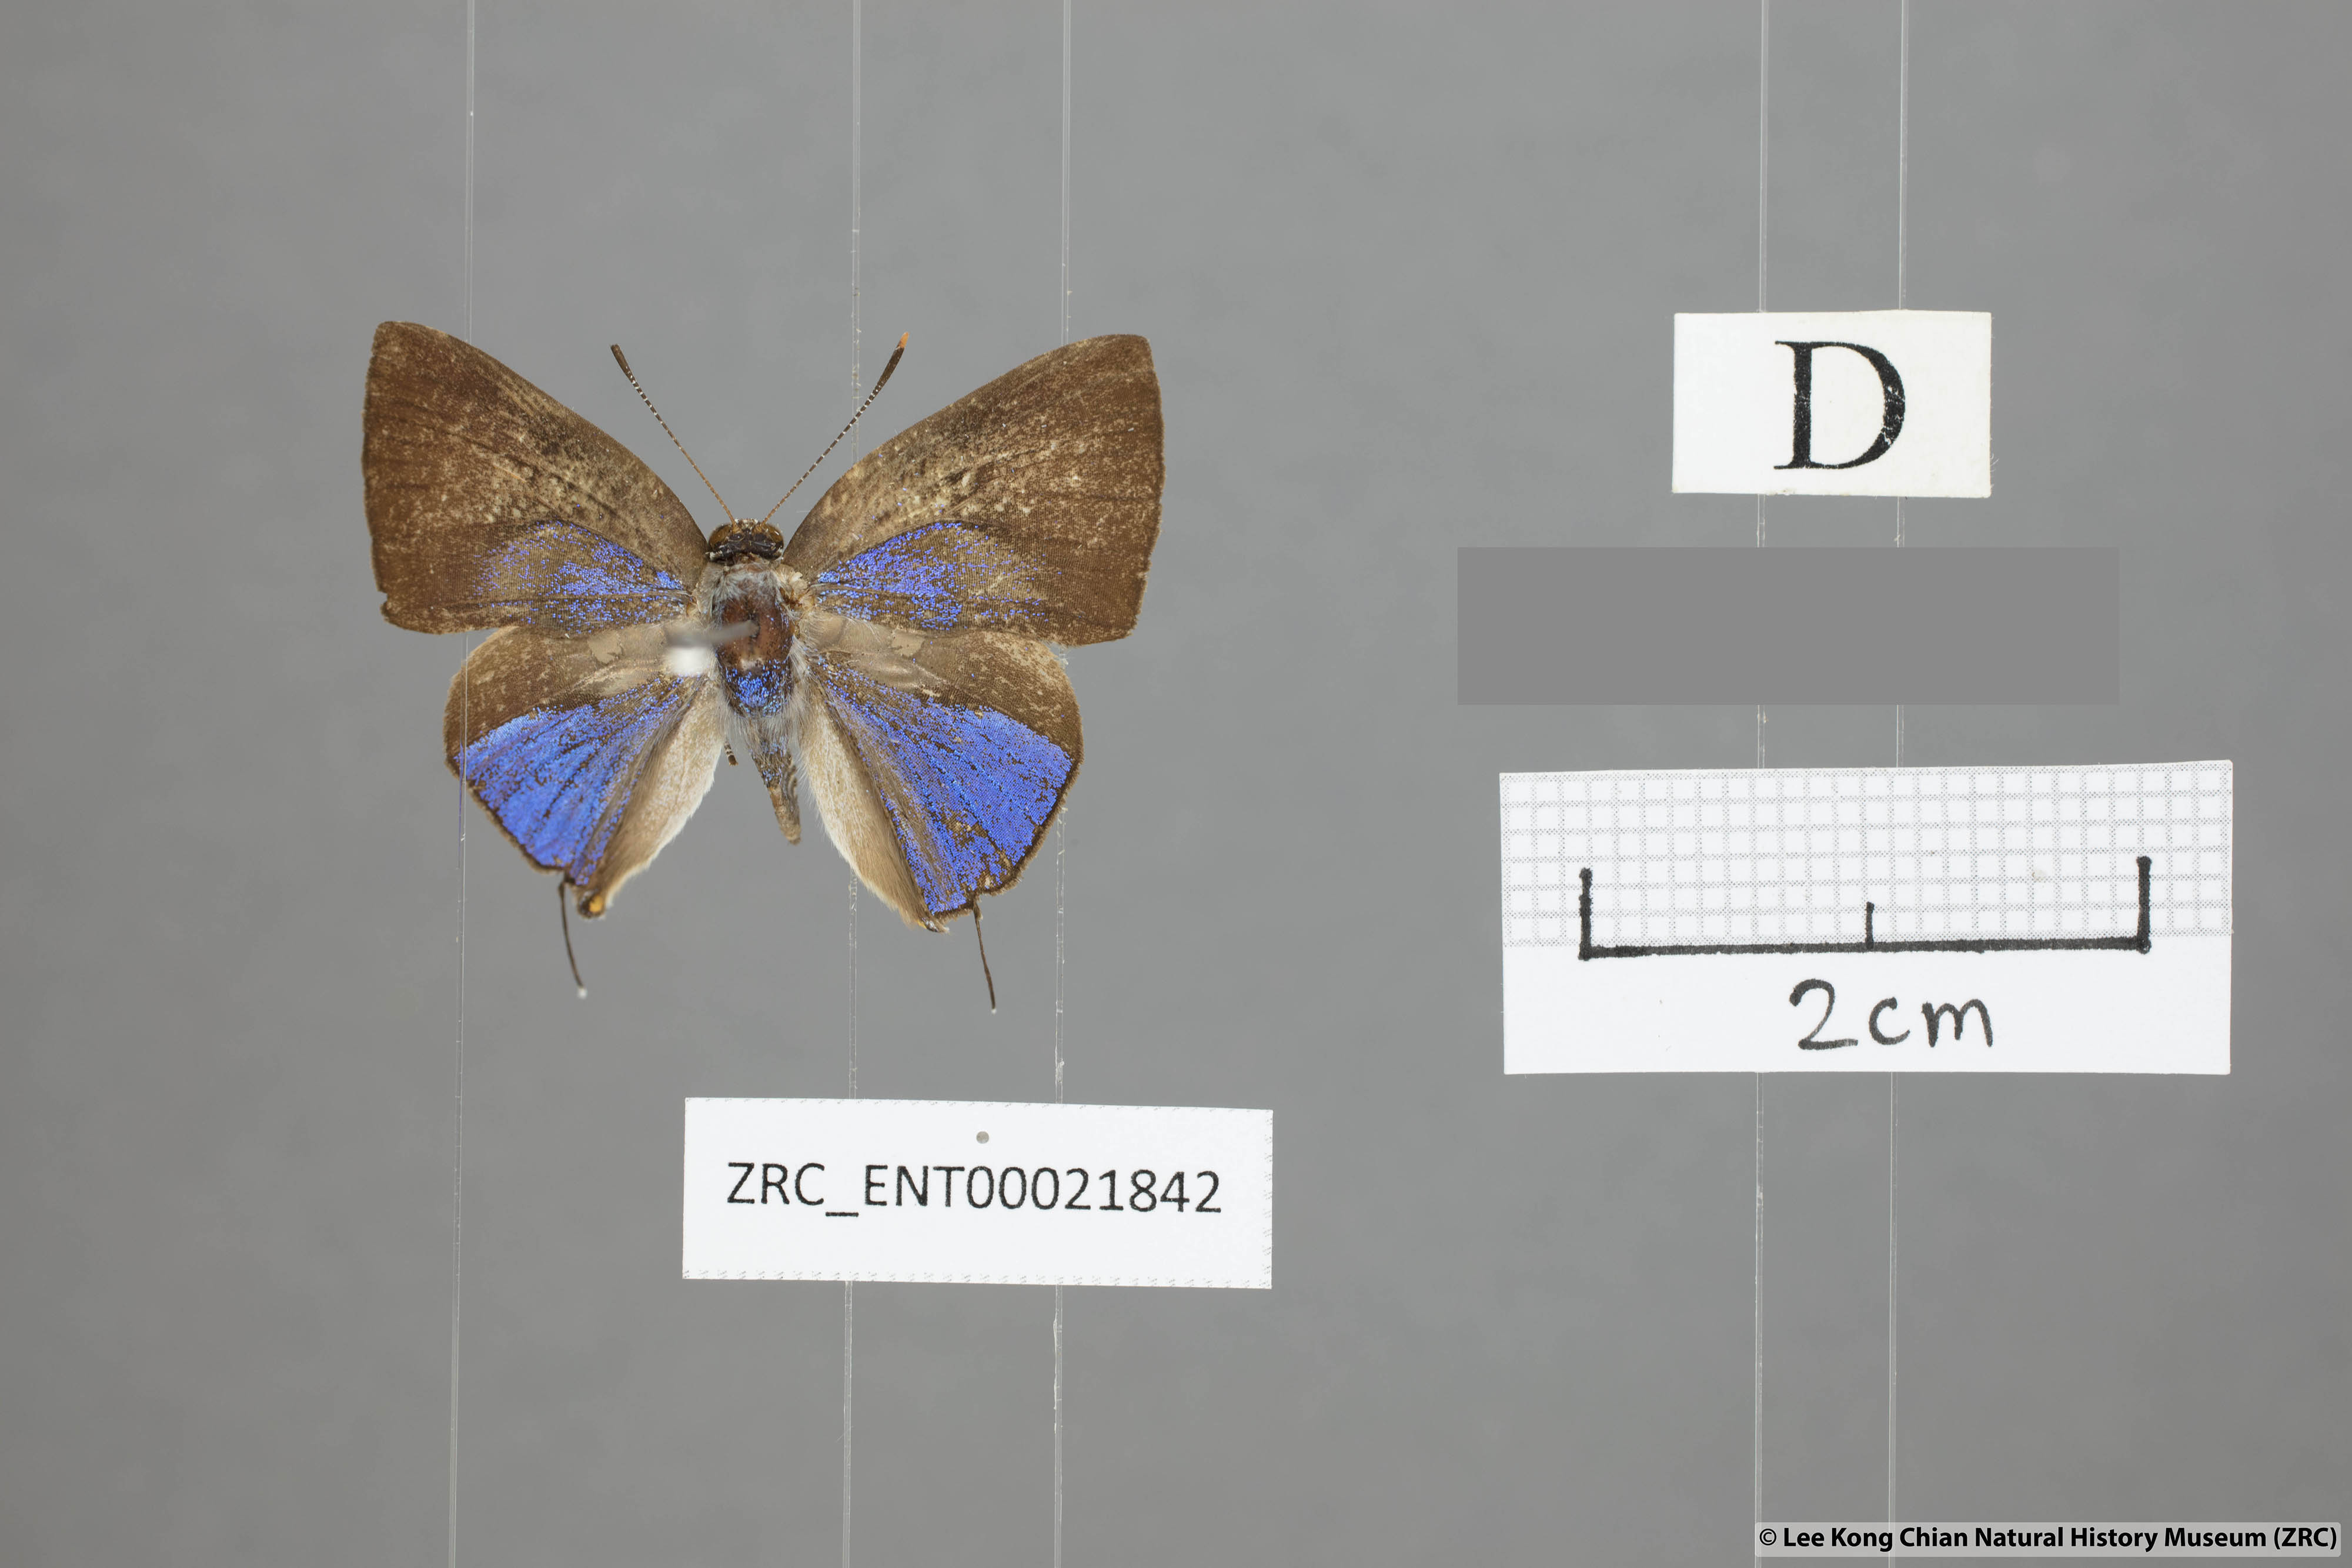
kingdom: Animalia
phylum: Arthropoda
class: Insecta
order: Lepidoptera
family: Lycaenidae
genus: Deudorix
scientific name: Deudorix kessuma
